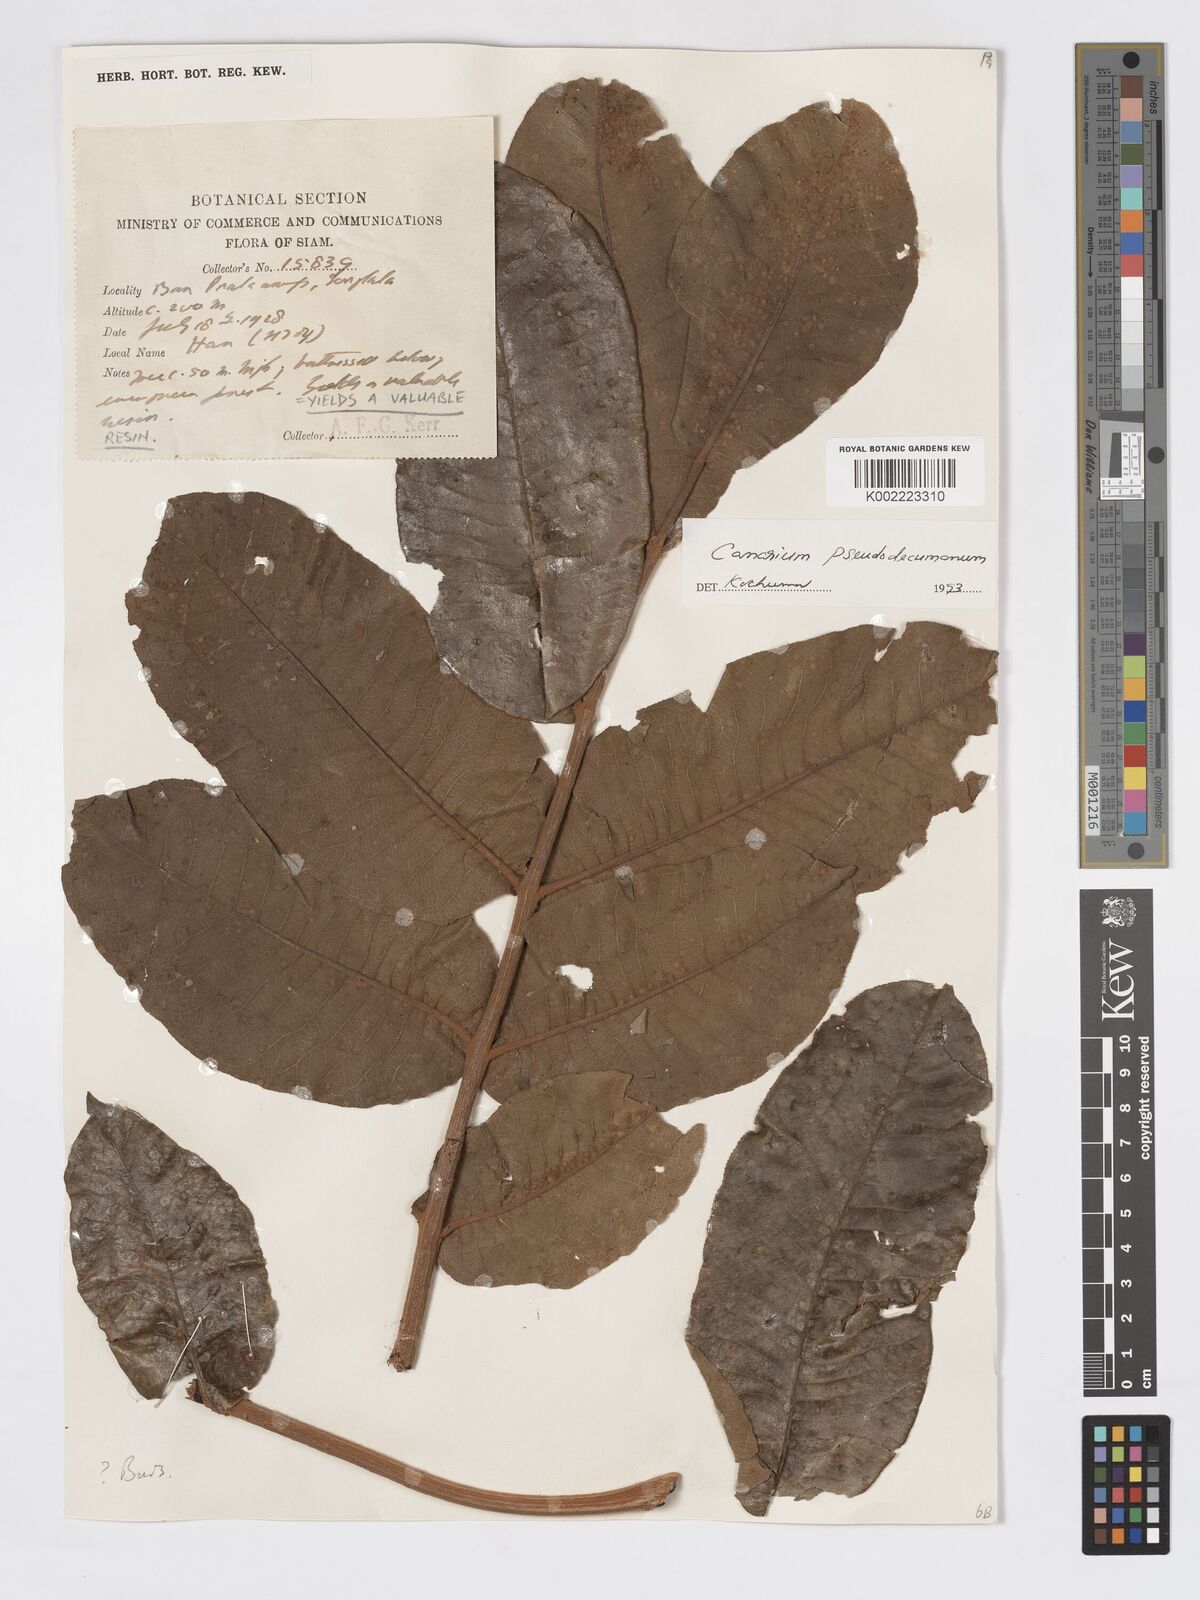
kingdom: Plantae
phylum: Tracheophyta
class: Magnoliopsida
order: Sapindales
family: Burseraceae
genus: Canarium
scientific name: Canarium pseudodecumanum
